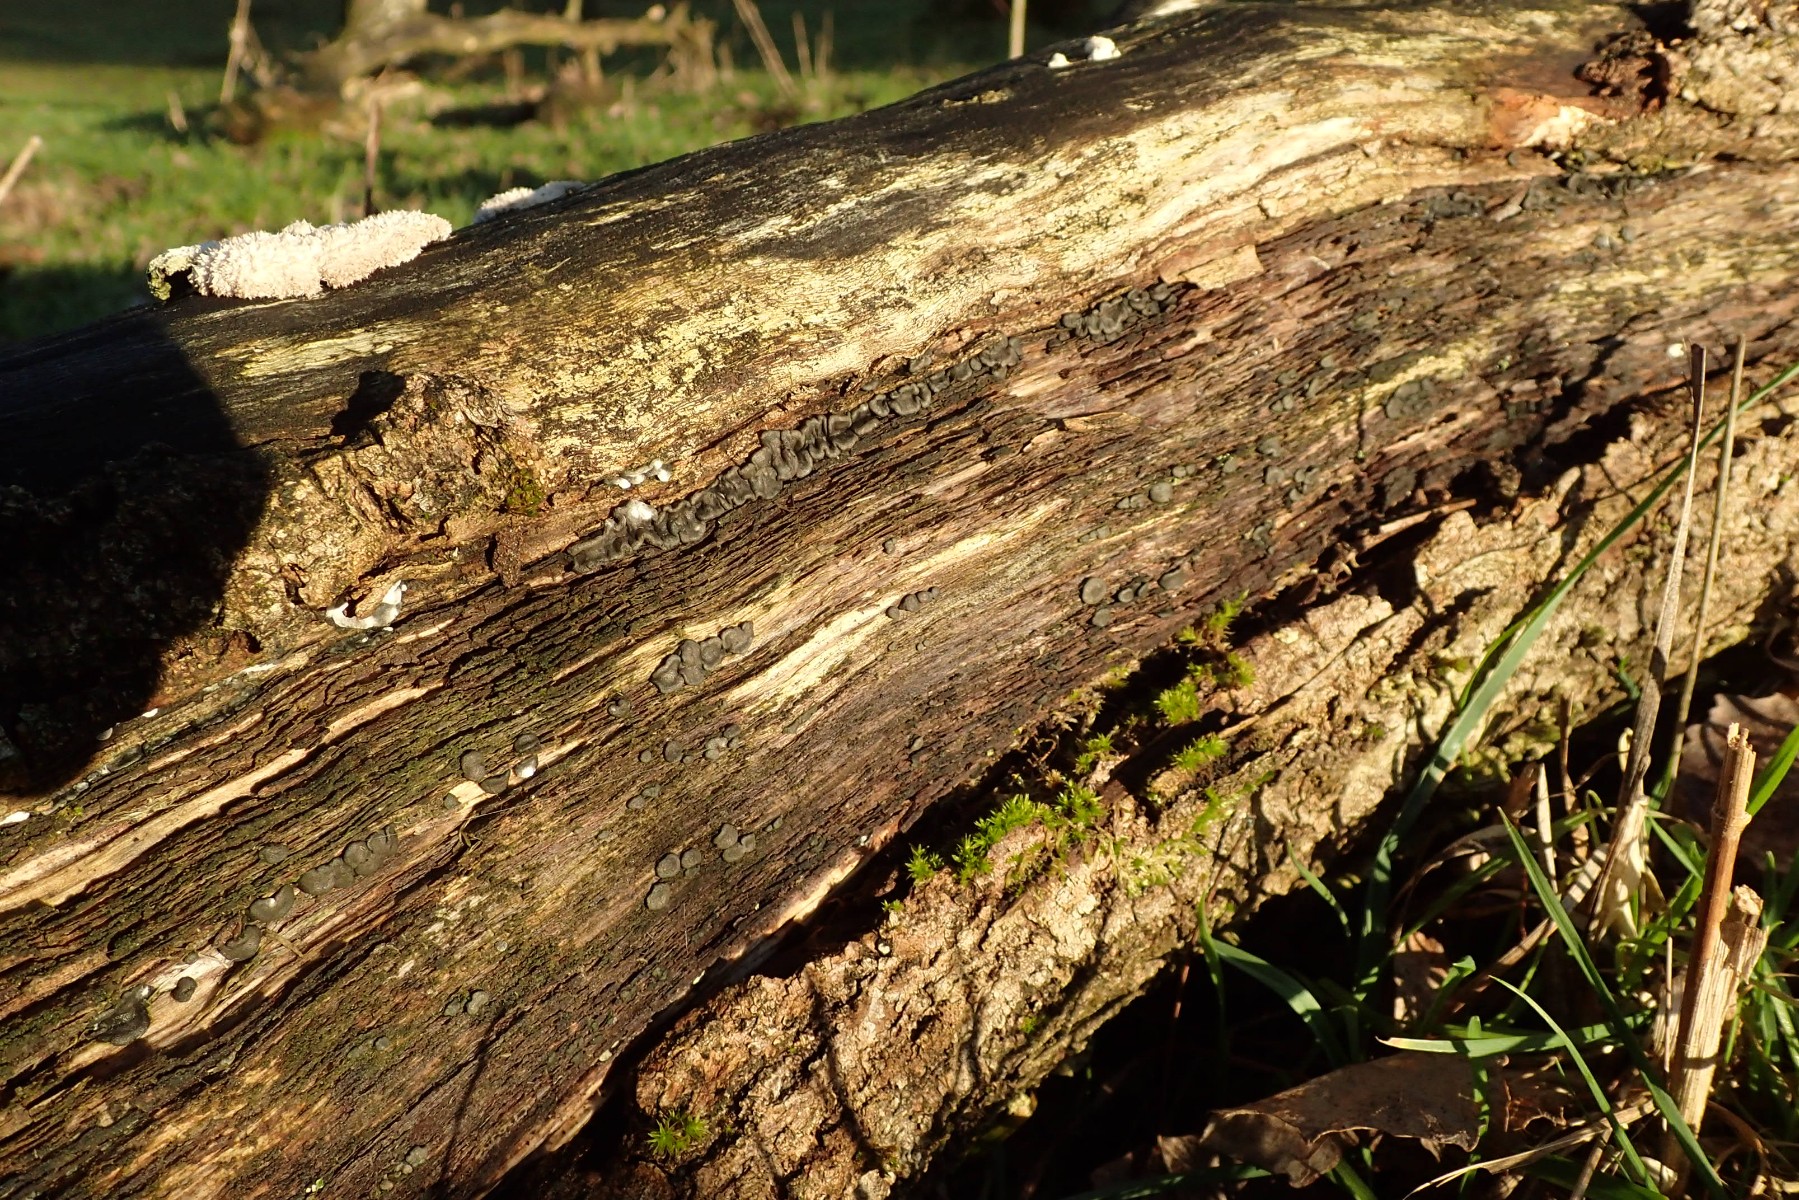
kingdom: Fungi
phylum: Ascomycota
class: Sordariomycetes
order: Hypocreales
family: Hypocreaceae
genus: Trichoderma
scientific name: Trichoderma citrinoviride
